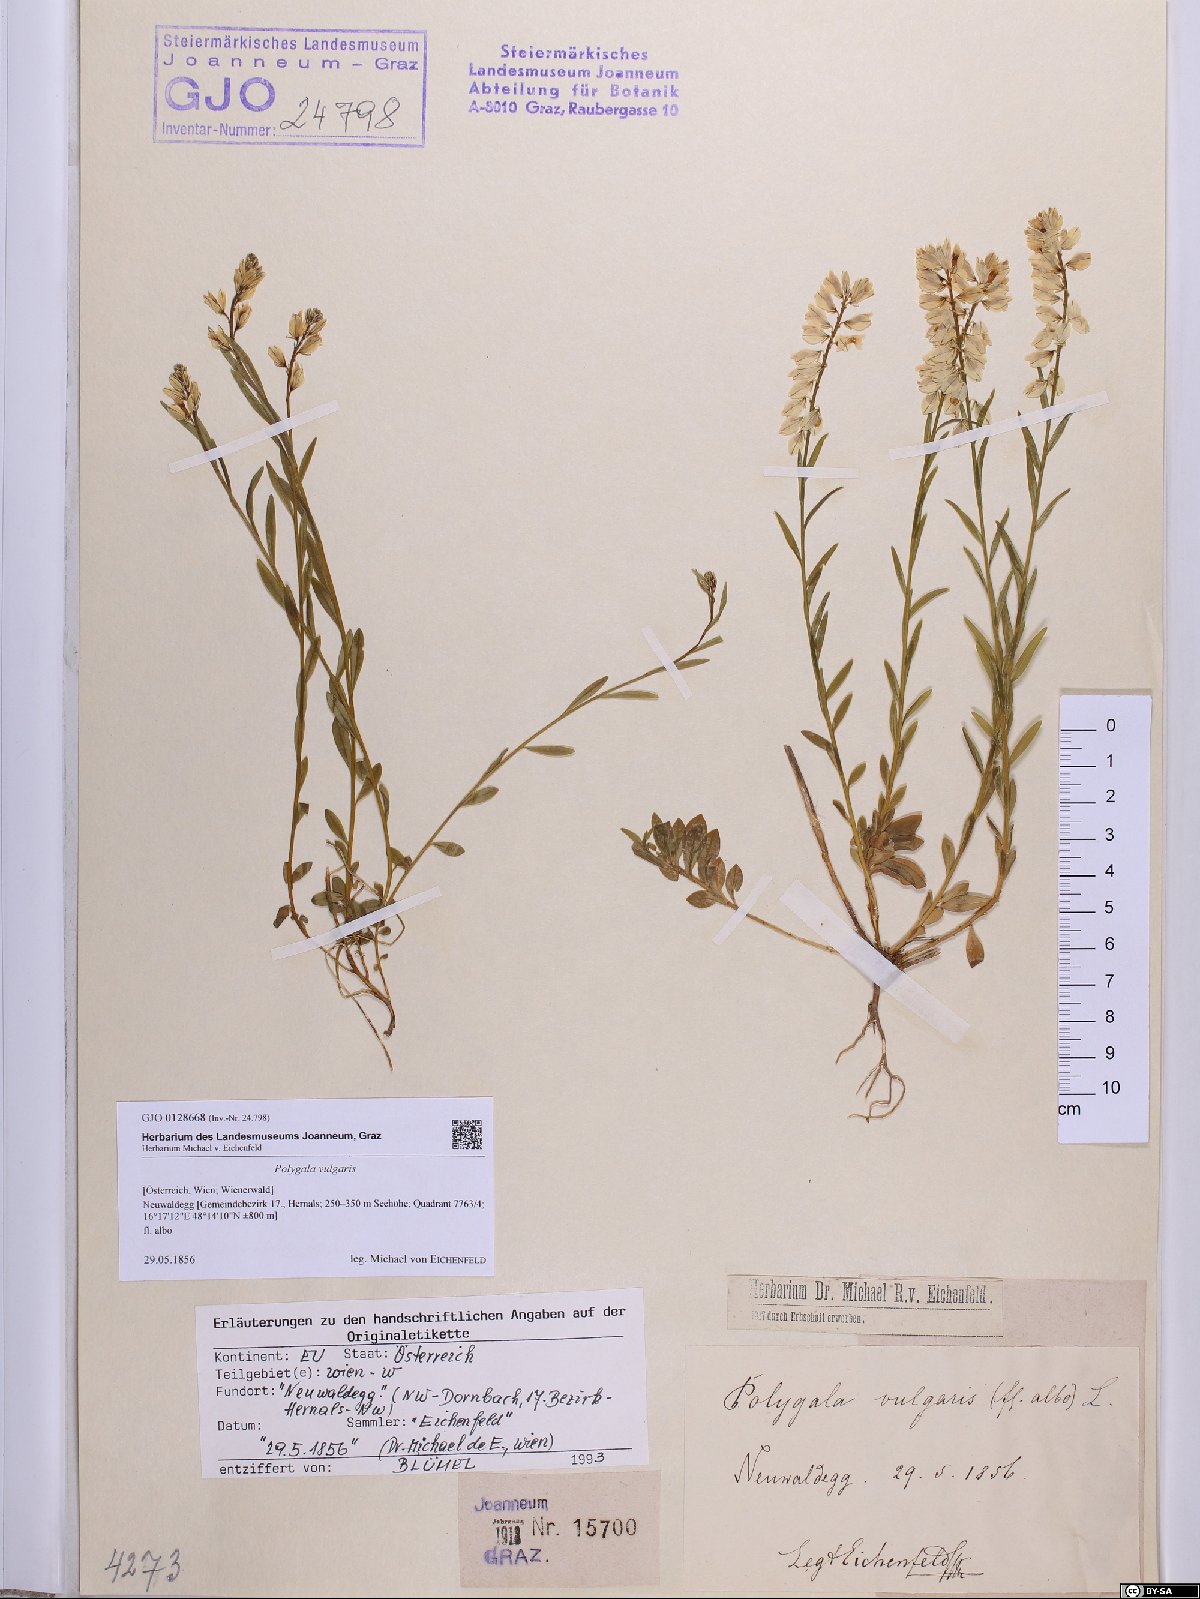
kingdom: Plantae
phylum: Tracheophyta
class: Magnoliopsida
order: Fabales
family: Polygalaceae
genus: Polygala
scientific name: Polygala vulgaris
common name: Common milkwort
